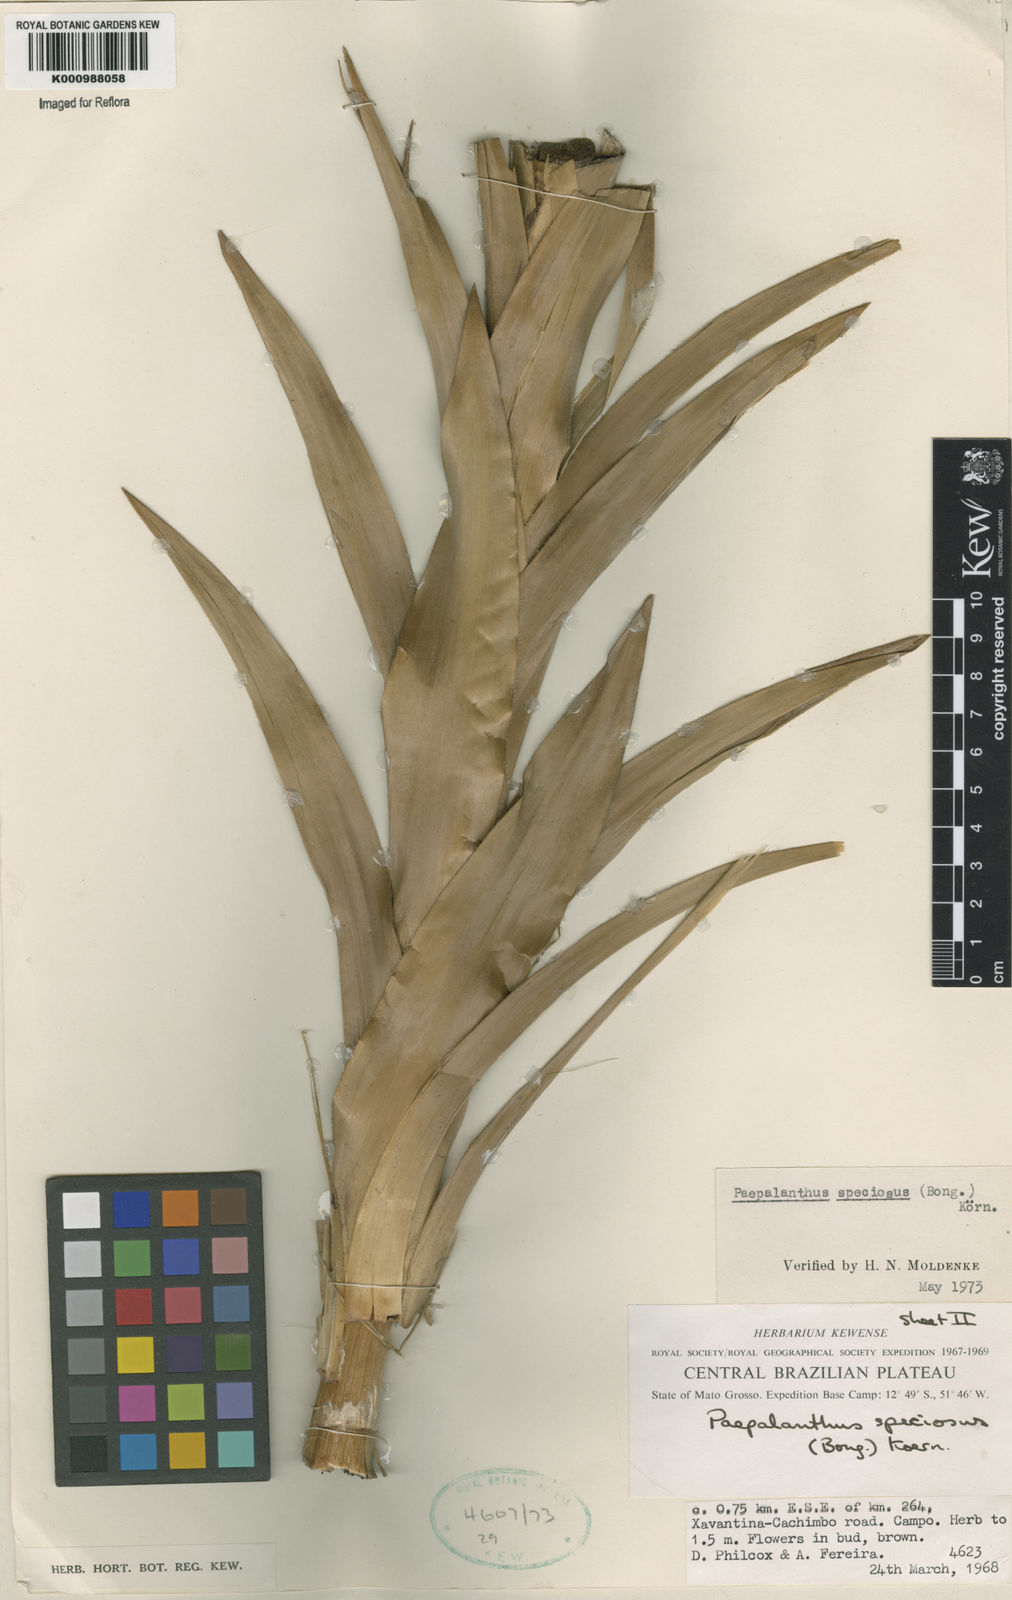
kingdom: Plantae
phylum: Tracheophyta
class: Liliopsida
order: Poales
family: Eriocaulaceae
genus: Paepalanthus
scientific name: Paepalanthus
